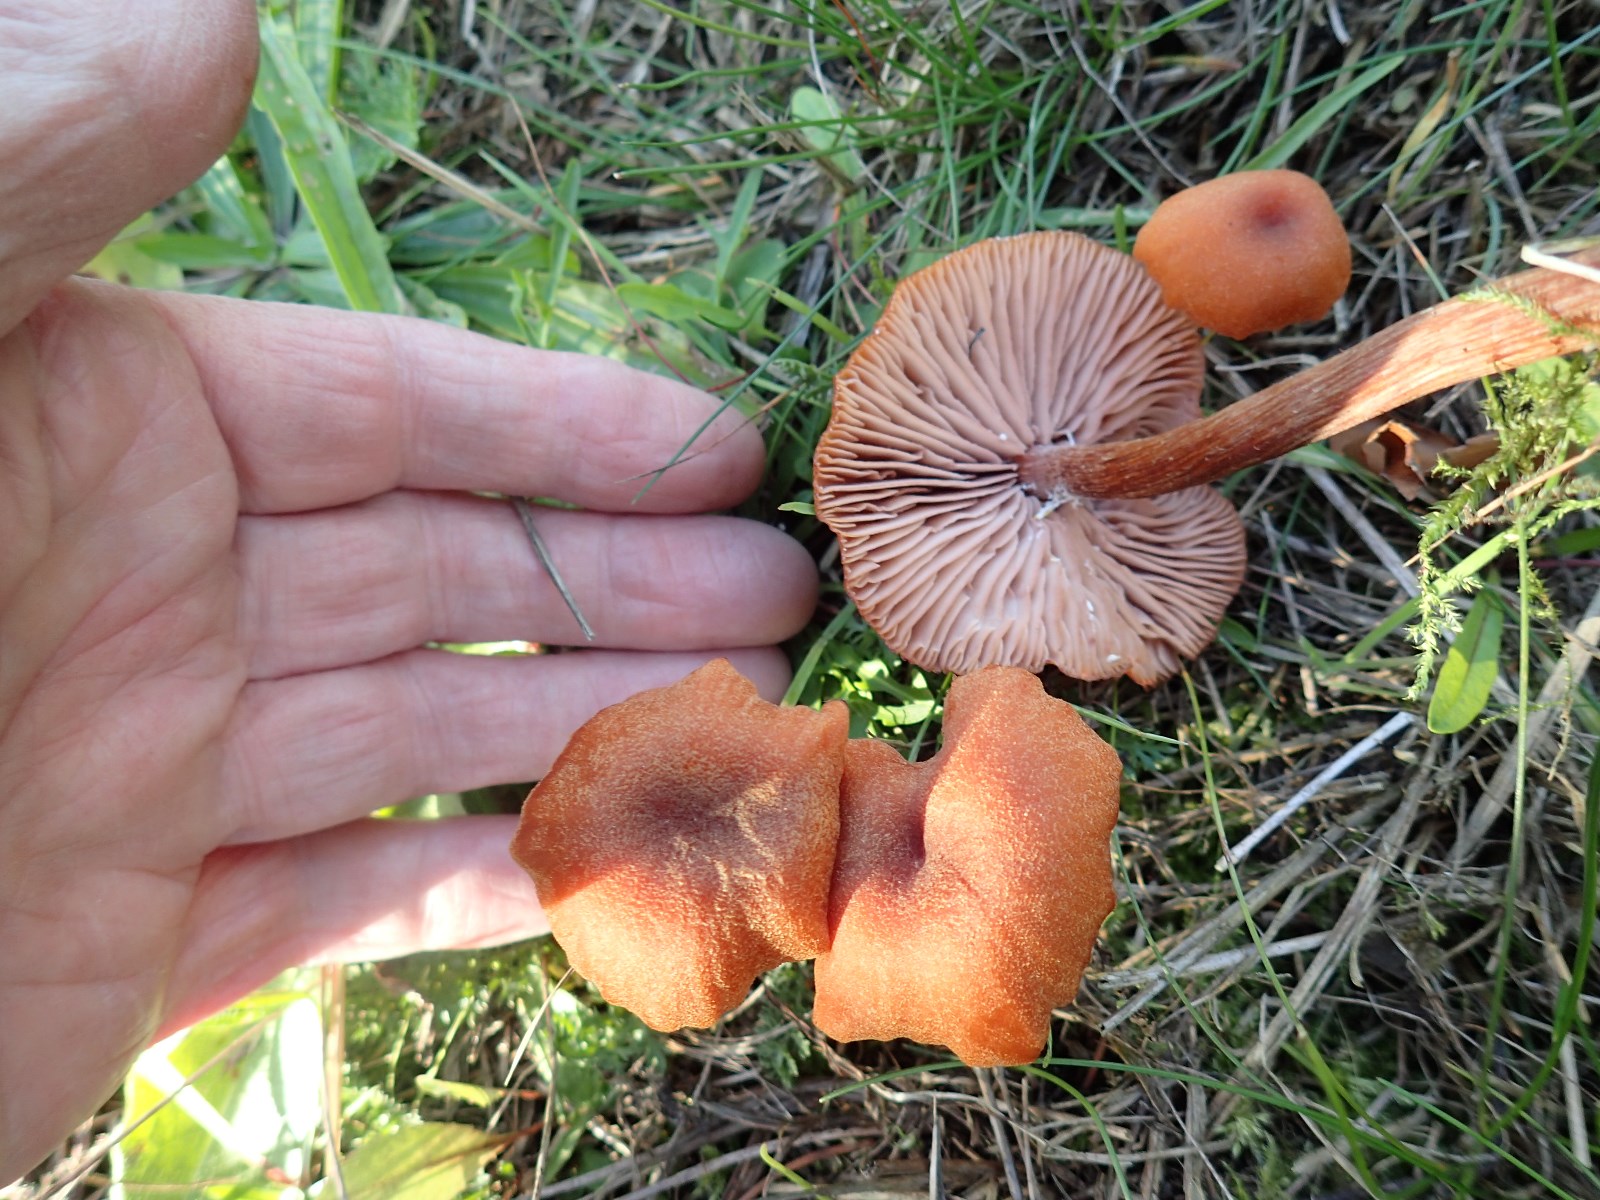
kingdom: Fungi
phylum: Basidiomycota
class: Agaricomycetes
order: Agaricales
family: Hydnangiaceae
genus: Laccaria
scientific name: Laccaria proxima
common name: stor ametysthat
